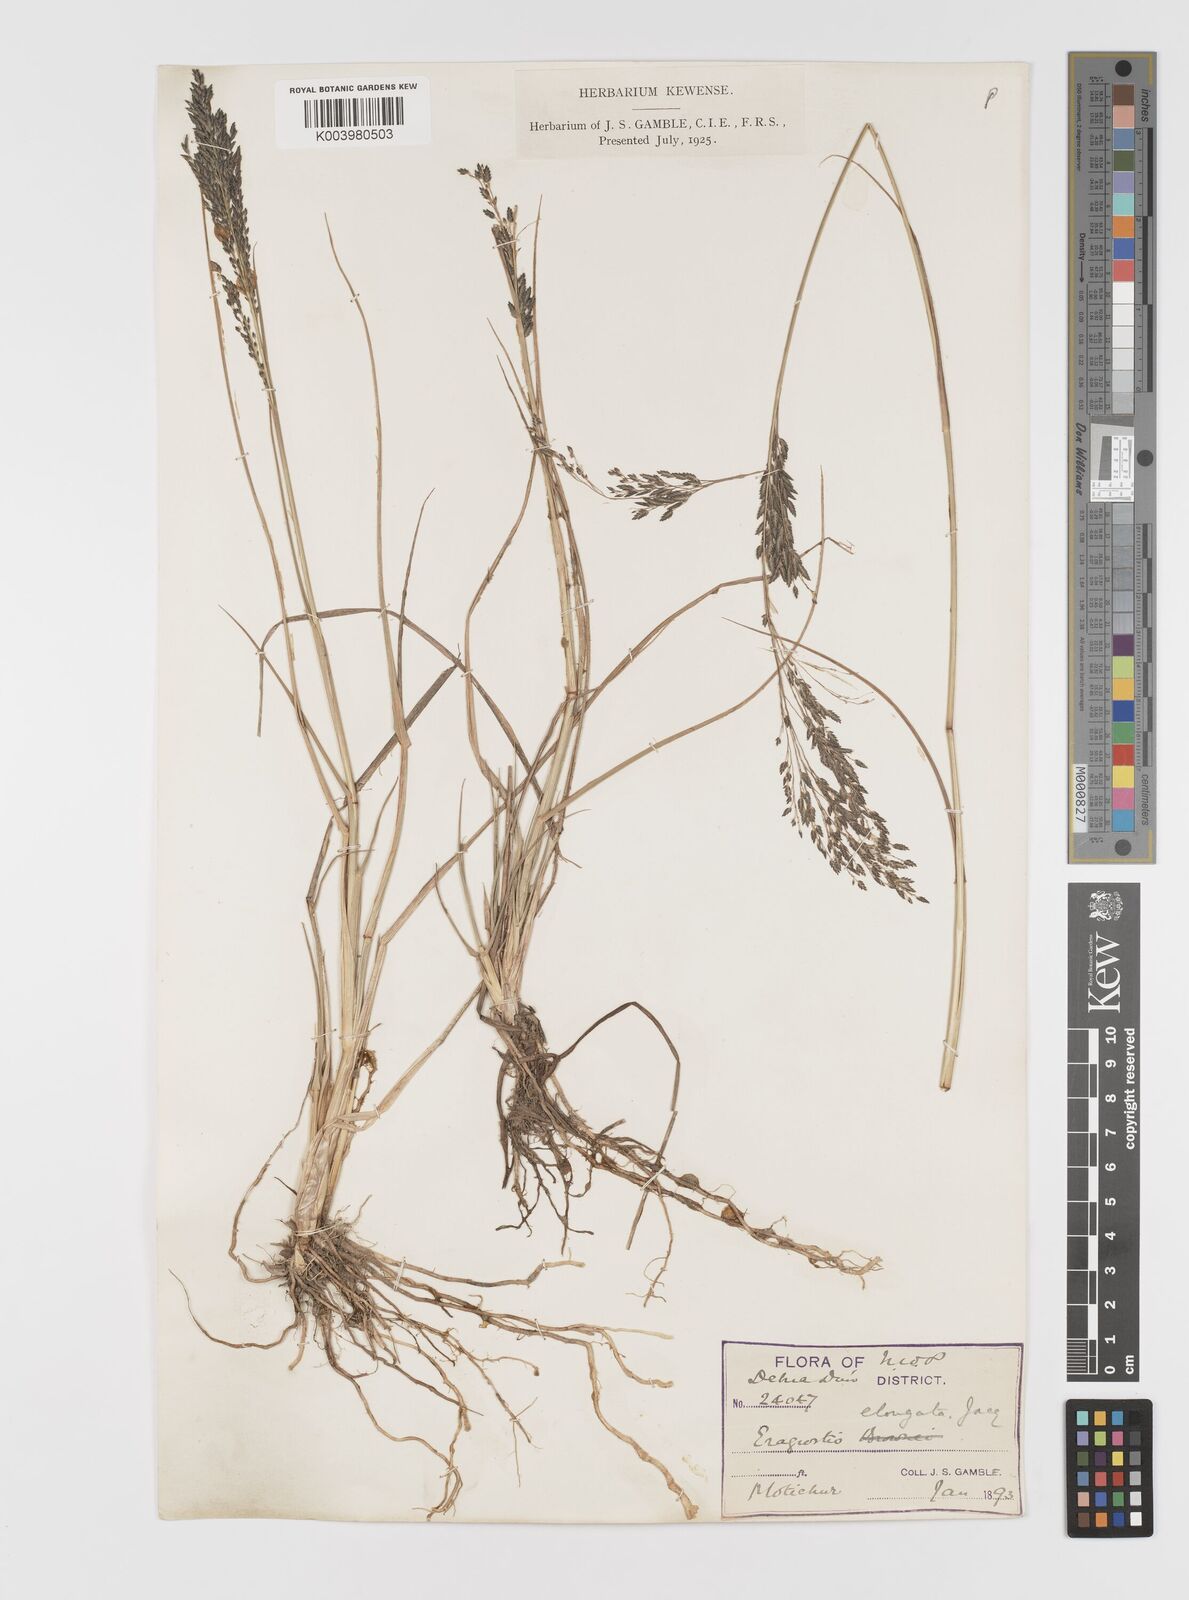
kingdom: Plantae
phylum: Tracheophyta
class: Liliopsida
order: Poales
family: Poaceae
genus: Eragrostis
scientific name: Eragrostis
